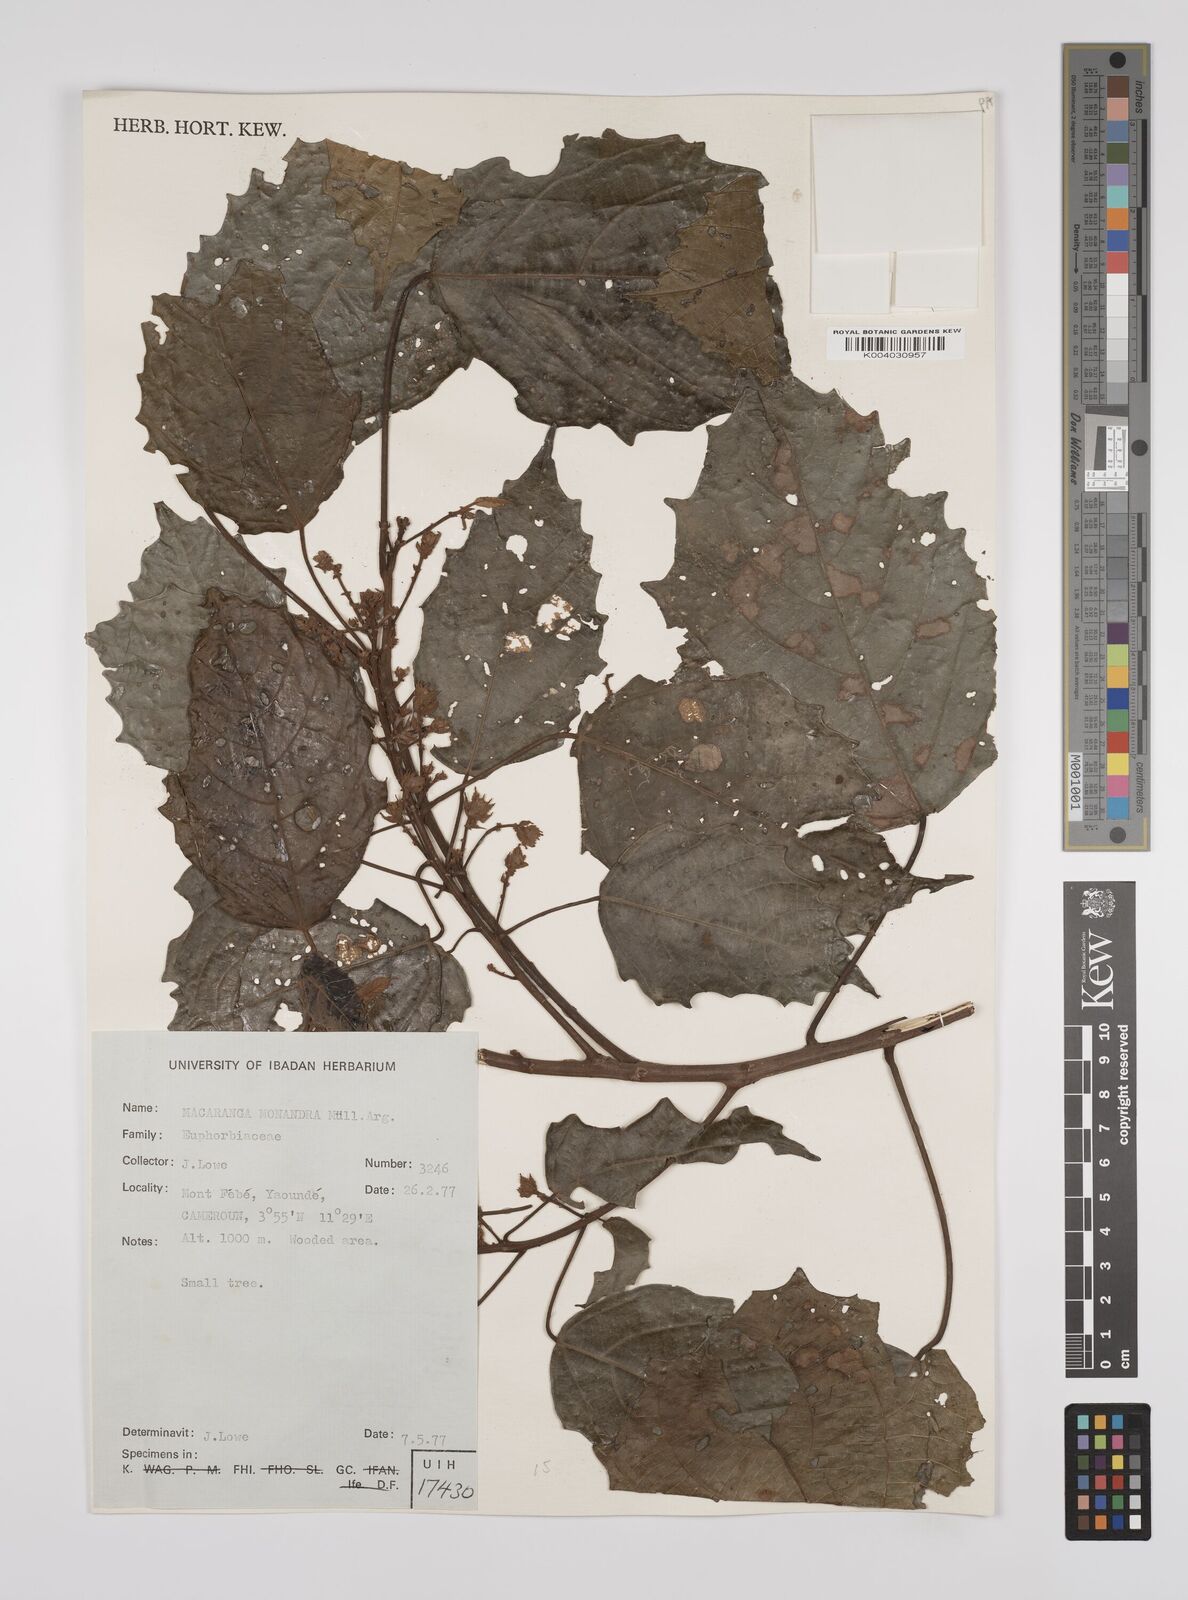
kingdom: Plantae
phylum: Tracheophyta
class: Magnoliopsida
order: Malpighiales
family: Euphorbiaceae
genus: Macaranga
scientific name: Macaranga monandra
